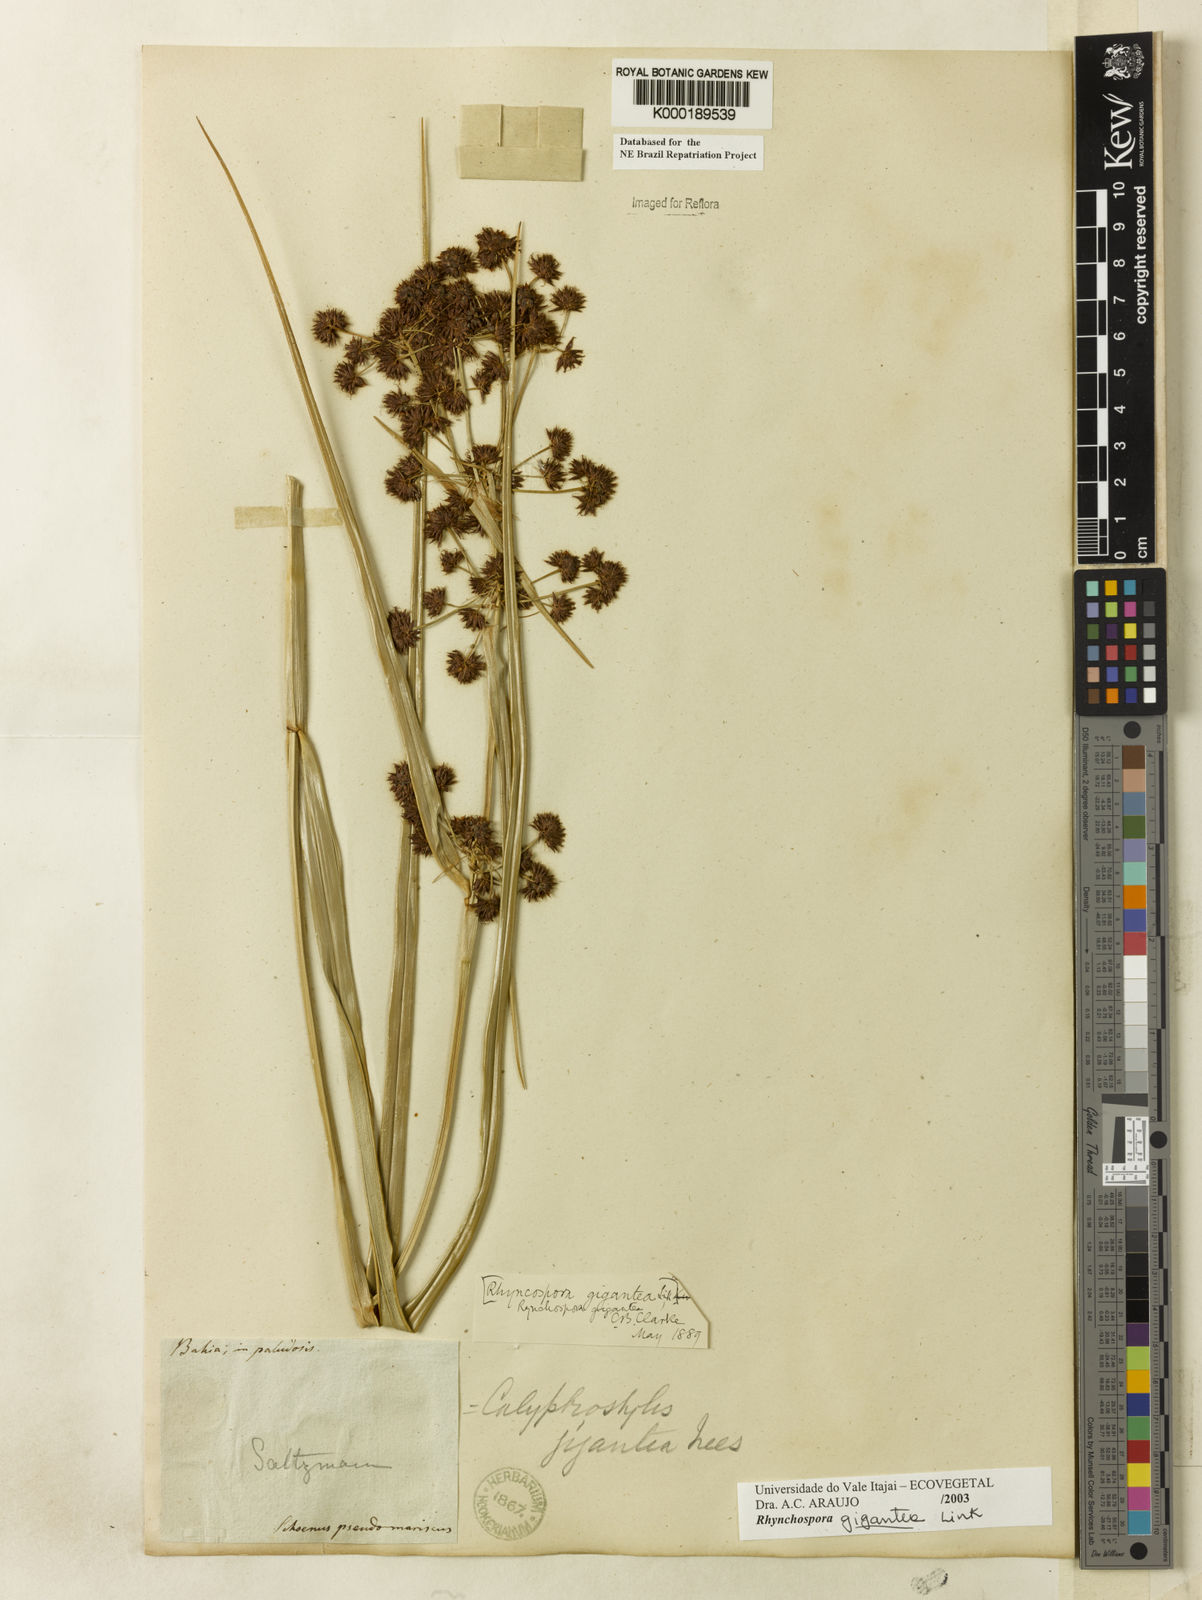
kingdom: Plantae
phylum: Tracheophyta
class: Liliopsida
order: Poales
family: Cyperaceae
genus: Rhynchospora
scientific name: Rhynchospora gigantea
